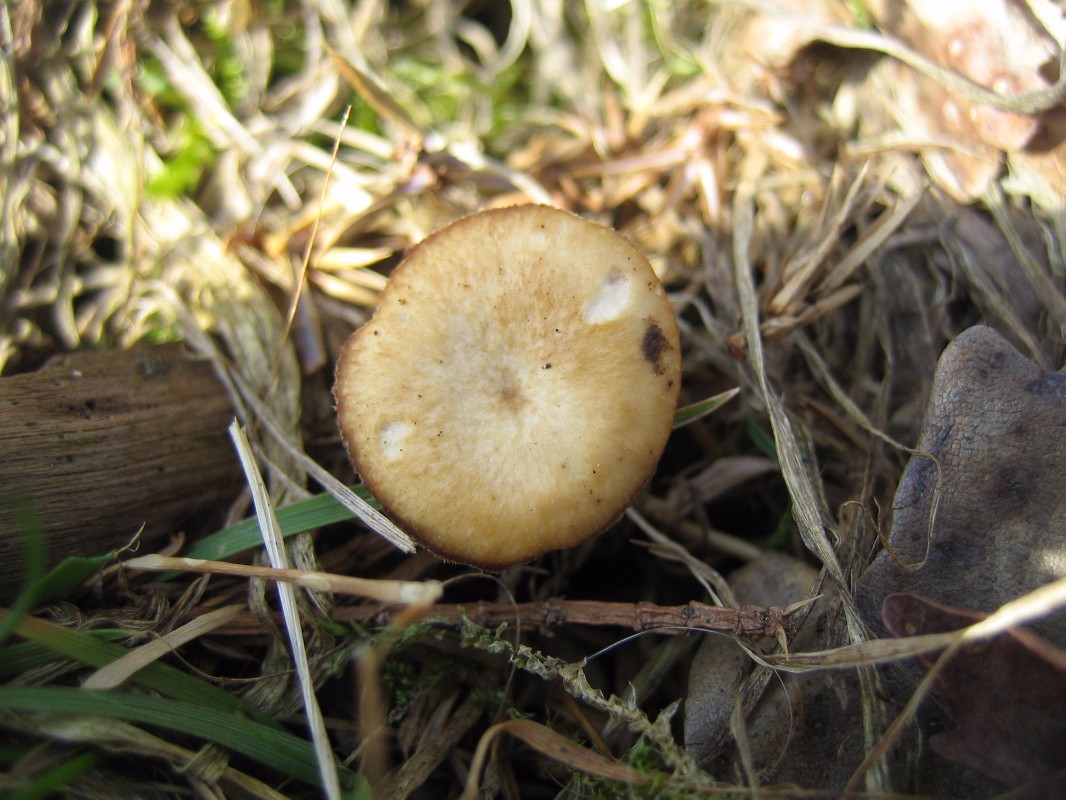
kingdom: Fungi
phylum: Basidiomycota
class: Agaricomycetes
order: Polyporales
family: Polyporaceae
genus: Lentinus
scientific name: Lentinus brumalis
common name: vinter-stilkporesvamp
